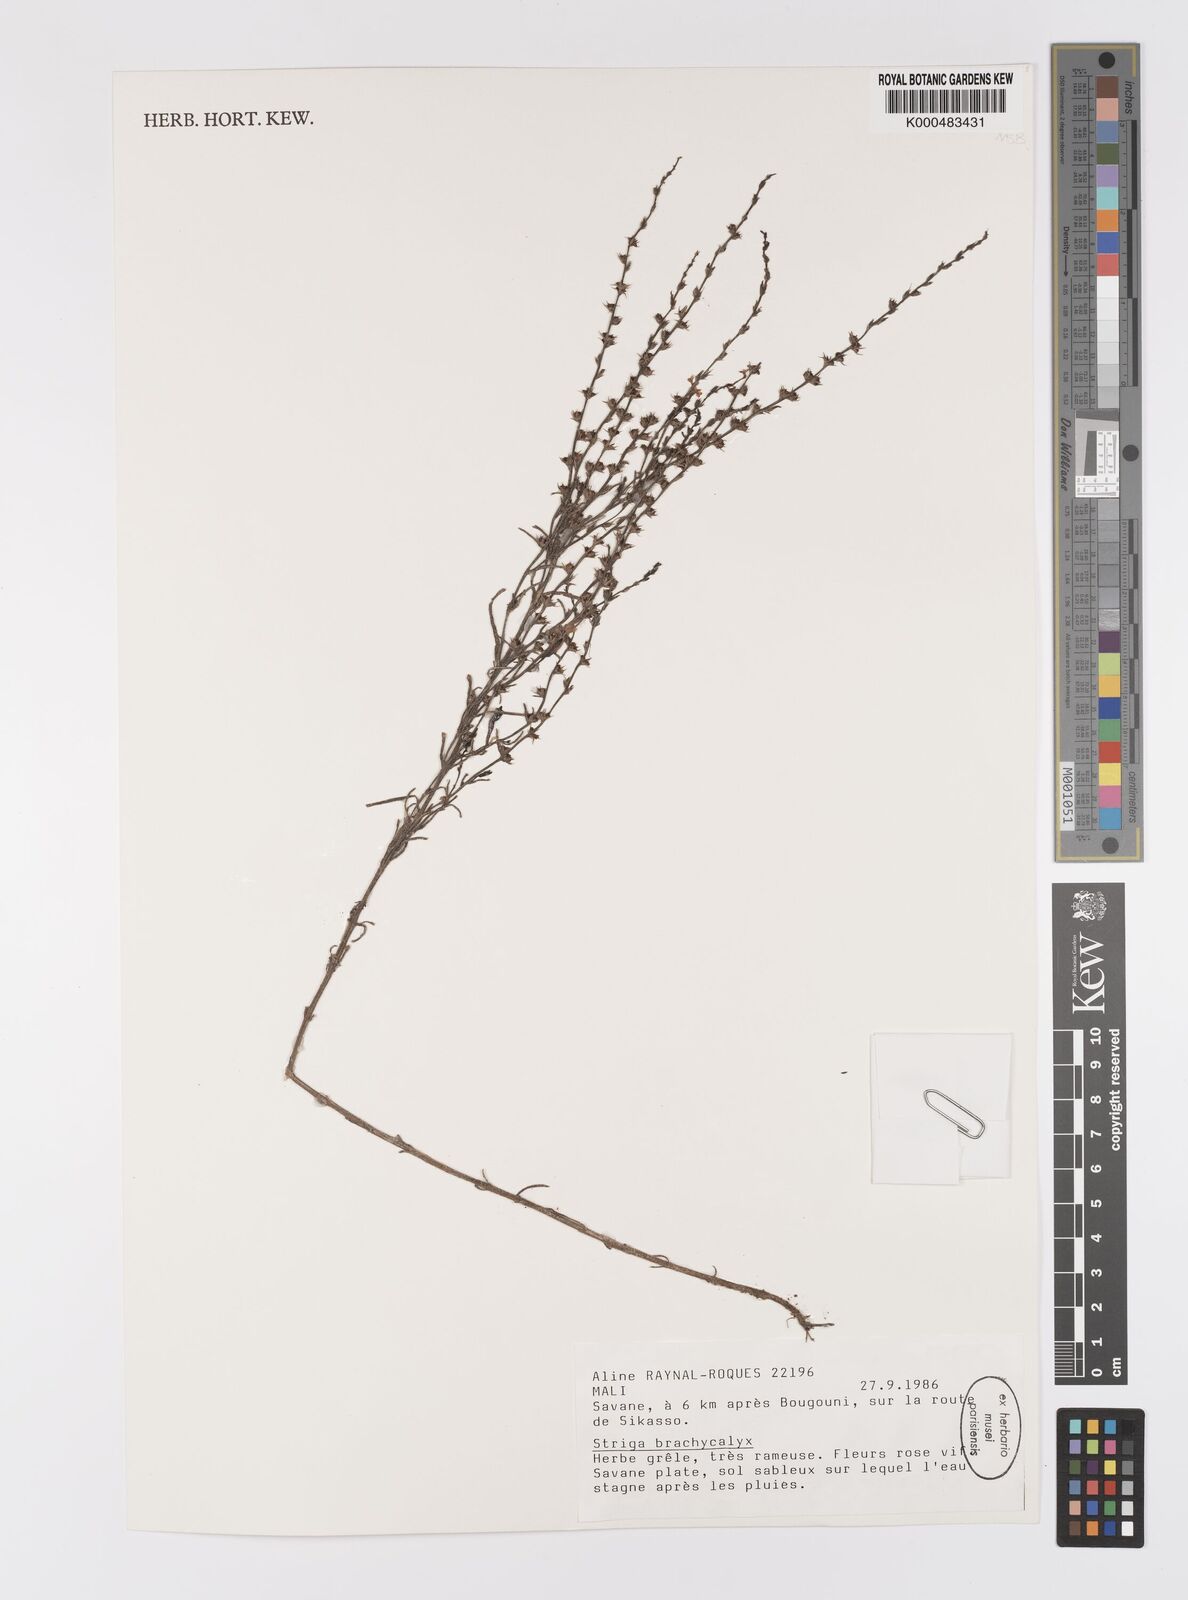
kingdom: Plantae
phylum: Tracheophyta
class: Magnoliopsida
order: Lamiales
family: Orobanchaceae
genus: Striga
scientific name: Striga brachycalyx
